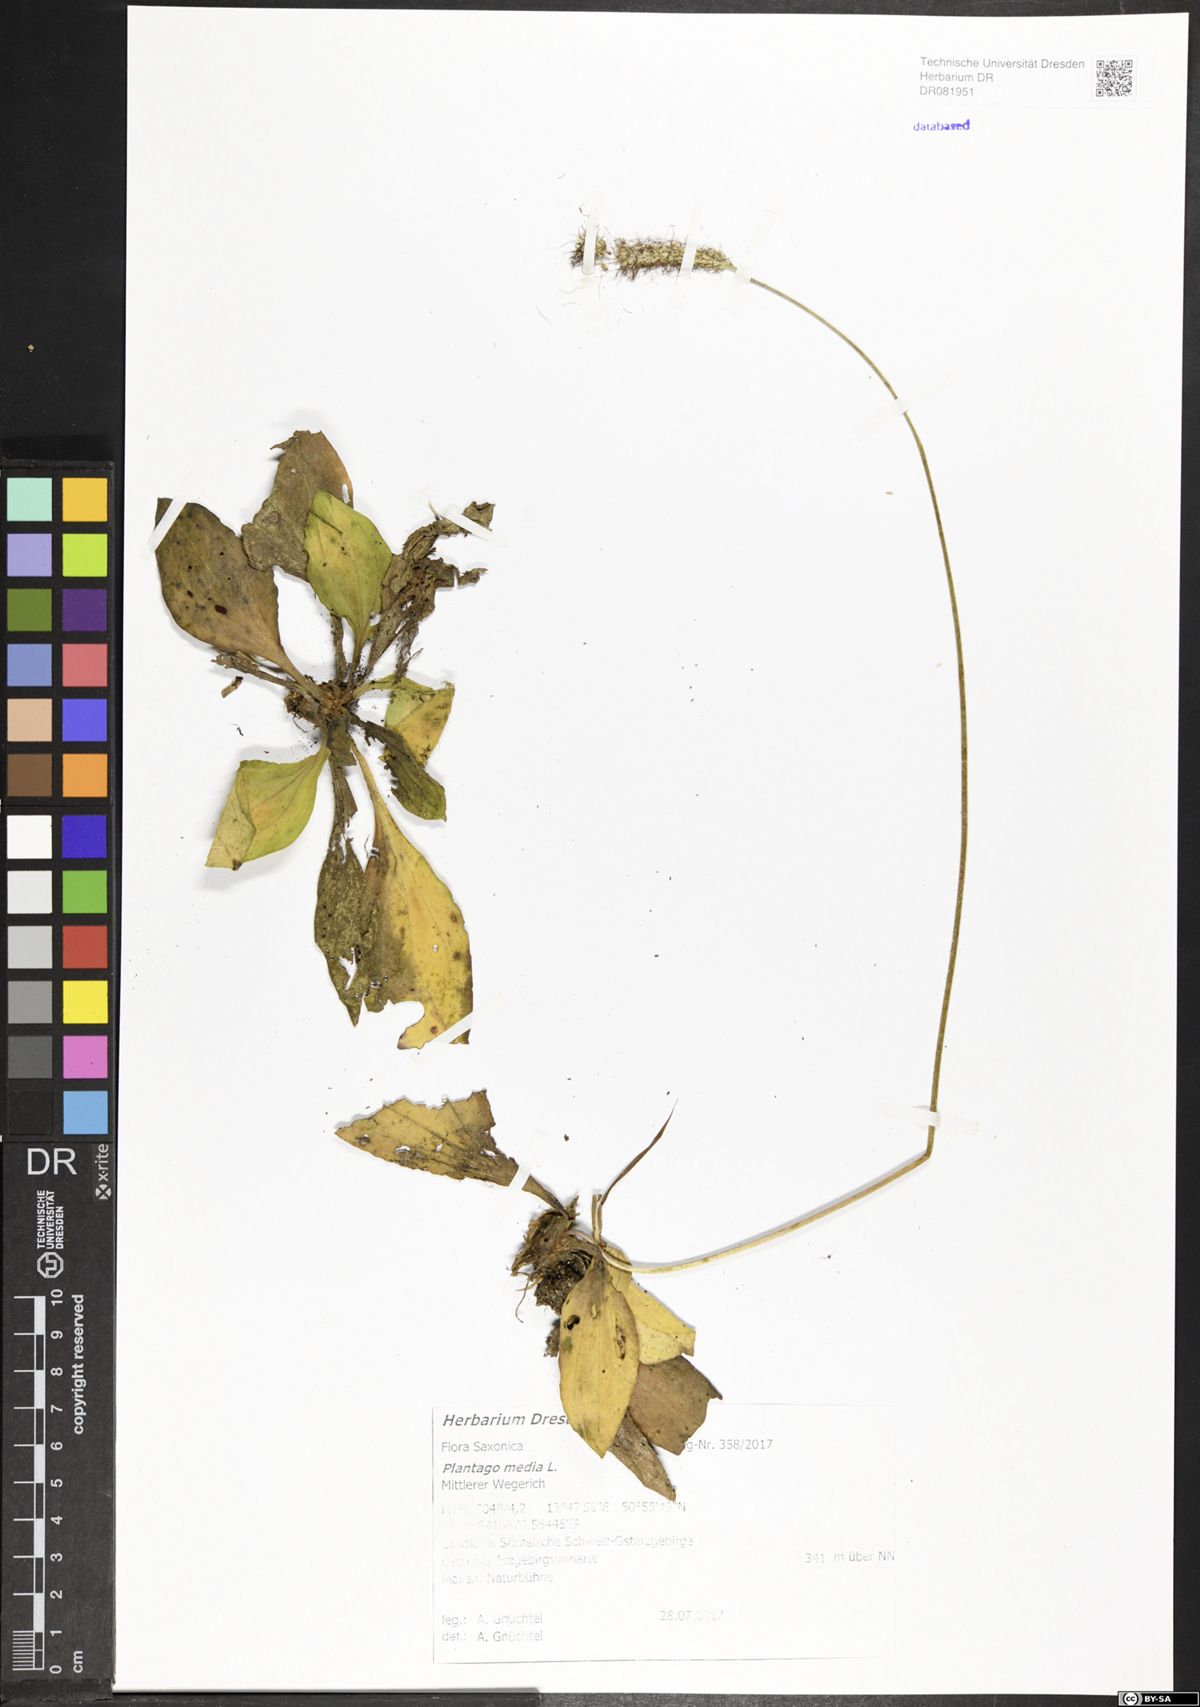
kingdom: Plantae
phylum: Tracheophyta
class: Magnoliopsida
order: Lamiales
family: Plantaginaceae
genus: Plantago
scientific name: Plantago media
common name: Hoary plantain
